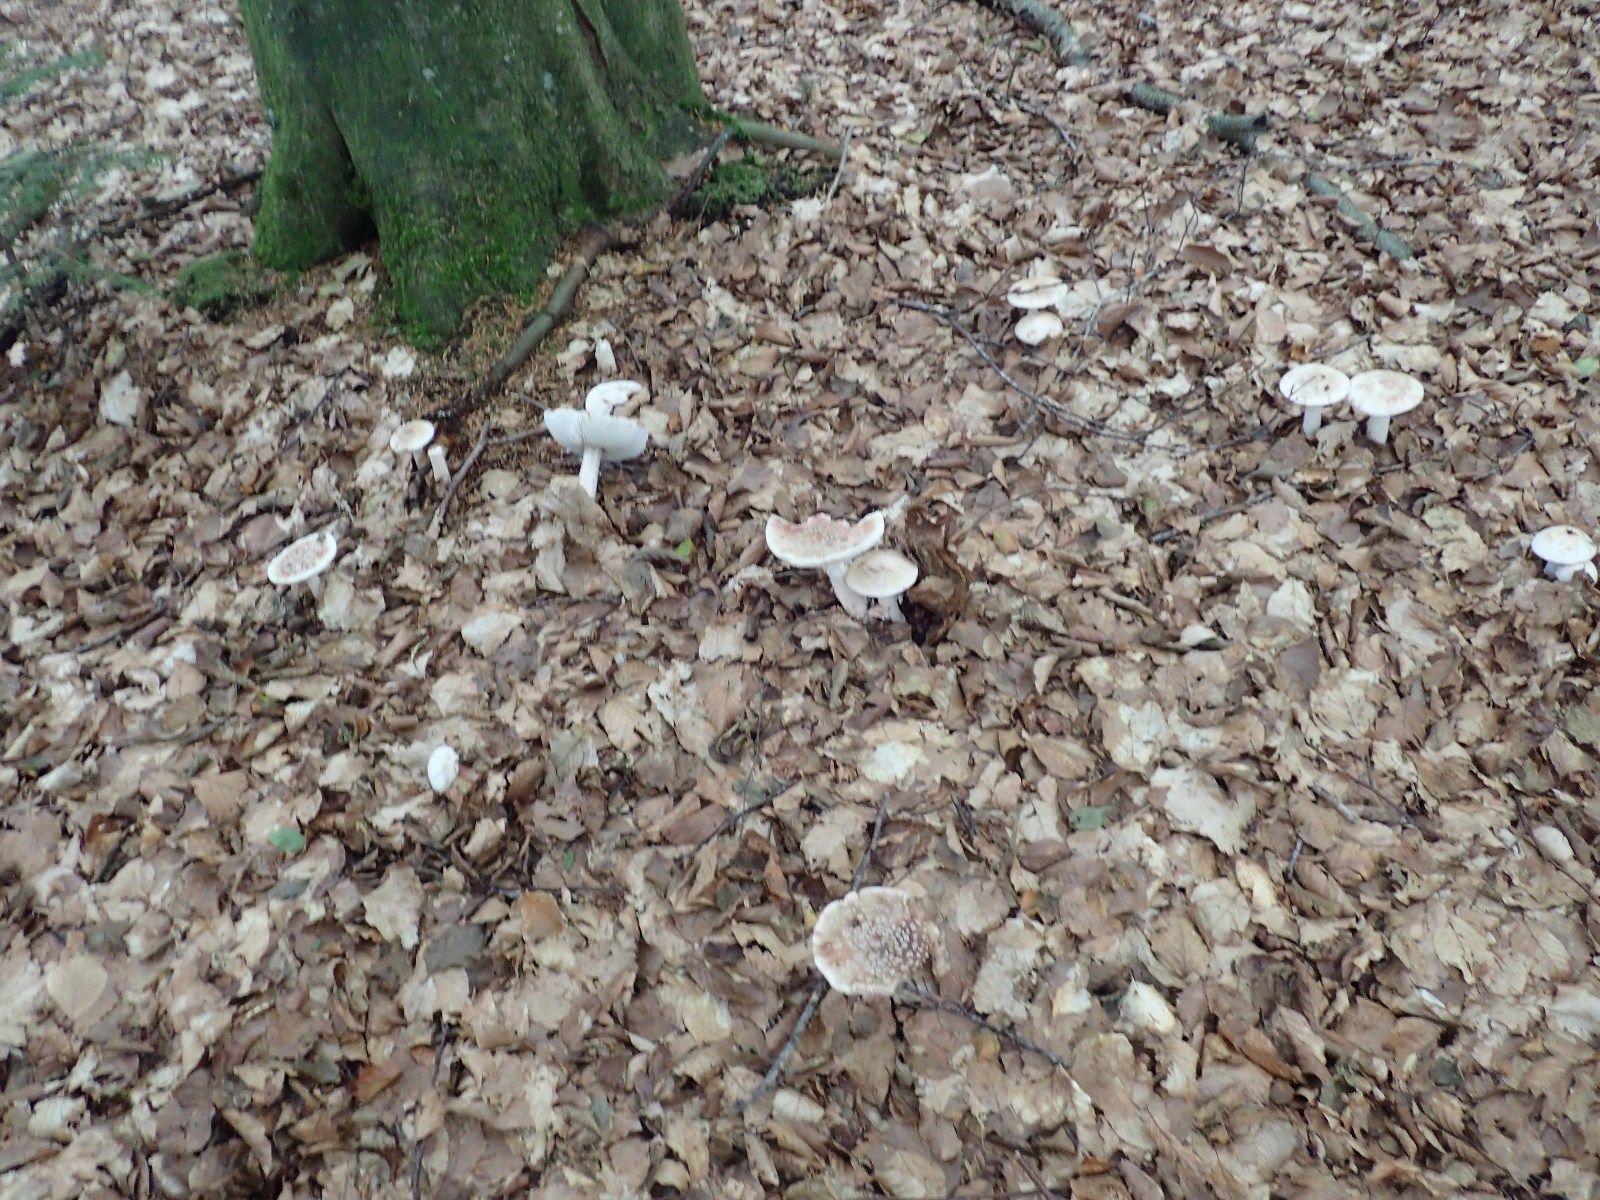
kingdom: Fungi
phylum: Basidiomycota
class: Agaricomycetes
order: Agaricales
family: Amanitaceae
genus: Amanita
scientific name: Amanita rubescens
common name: rødmende fluesvamp
